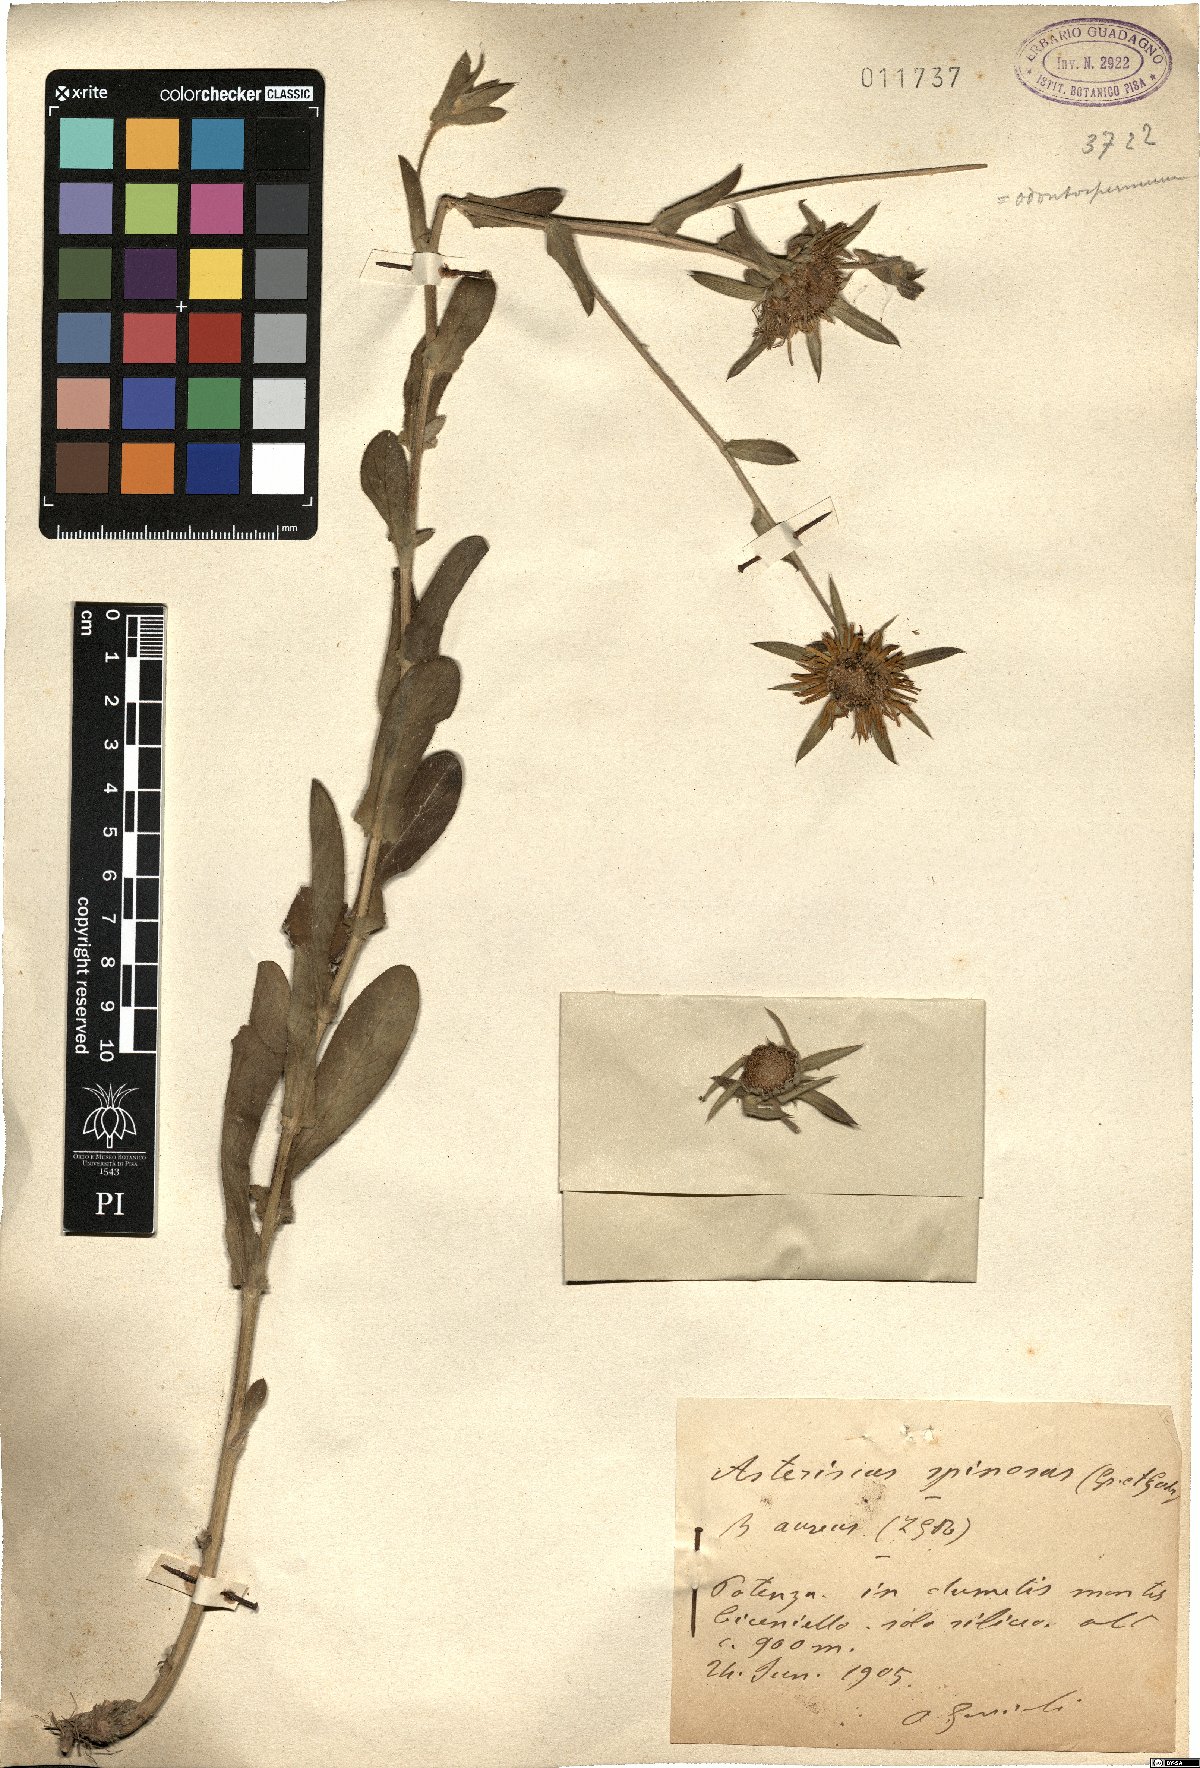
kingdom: Plantae
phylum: Tracheophyta
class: Magnoliopsida
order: Asterales
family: Asteraceae
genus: Pallenis
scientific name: Pallenis spinosa
